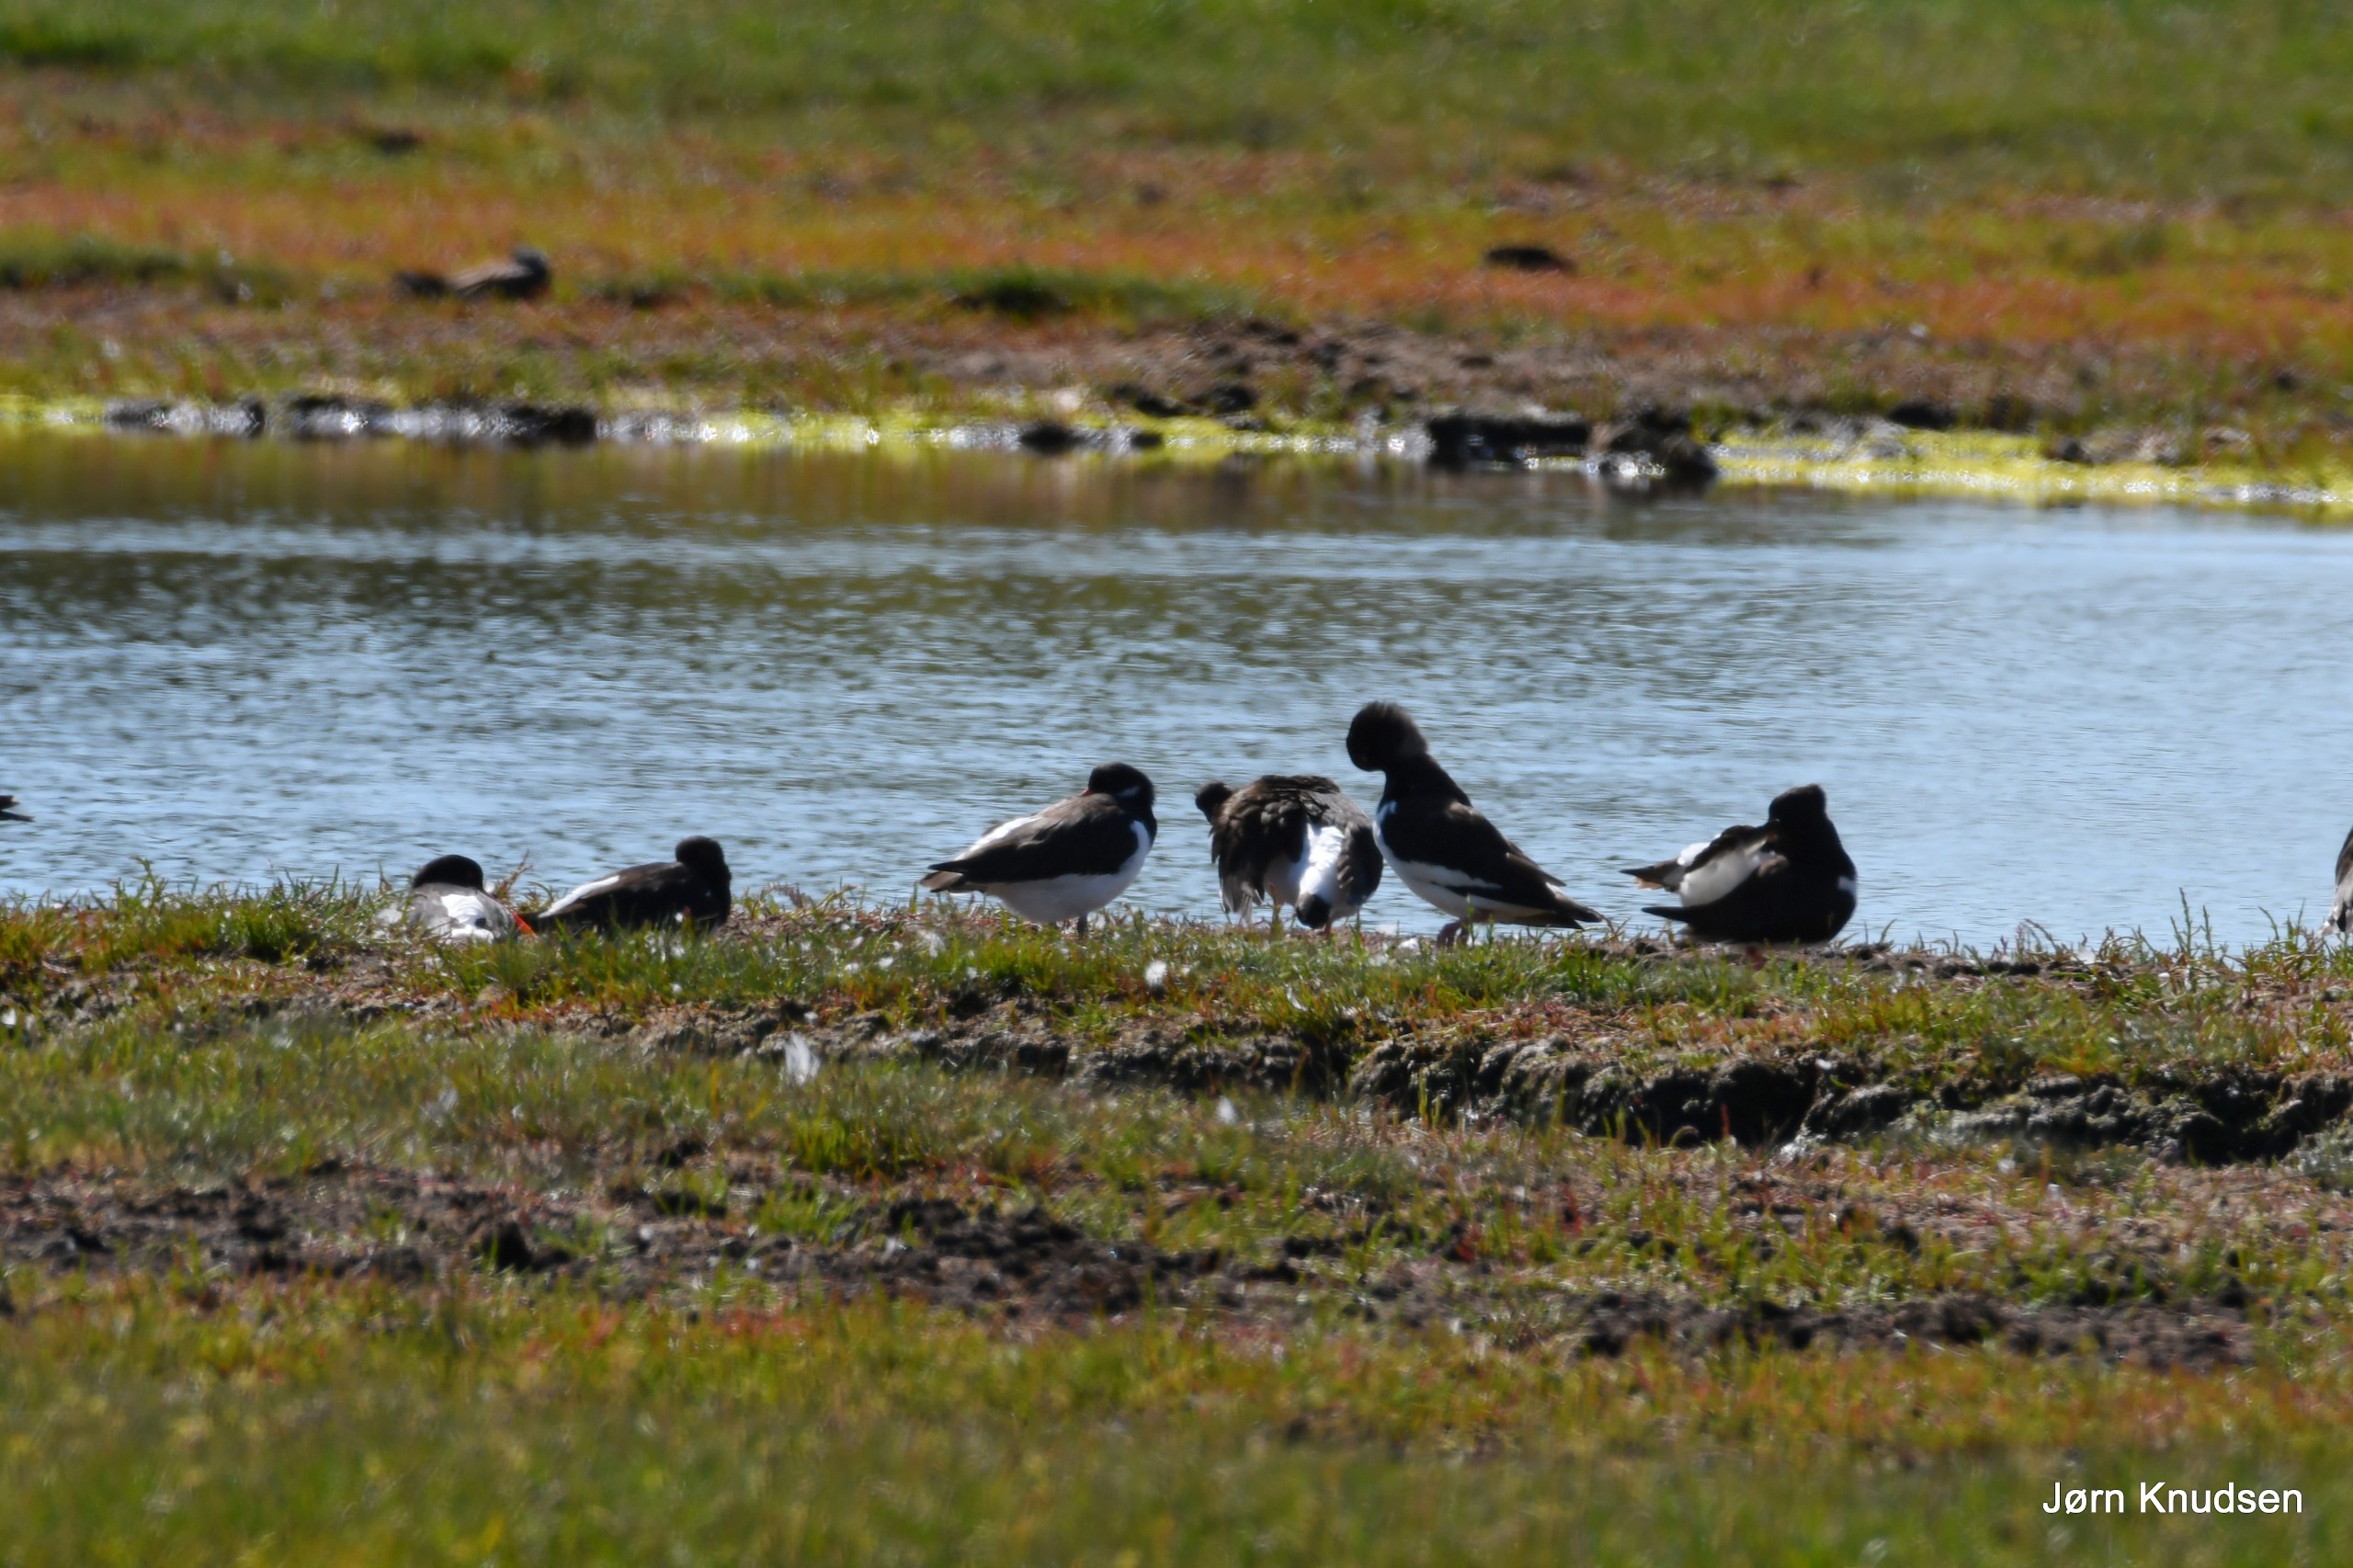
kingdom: Animalia
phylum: Chordata
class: Aves
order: Charadriiformes
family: Haematopodidae
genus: Haematopus
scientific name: Haematopus ostralegus
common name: Strandskade
